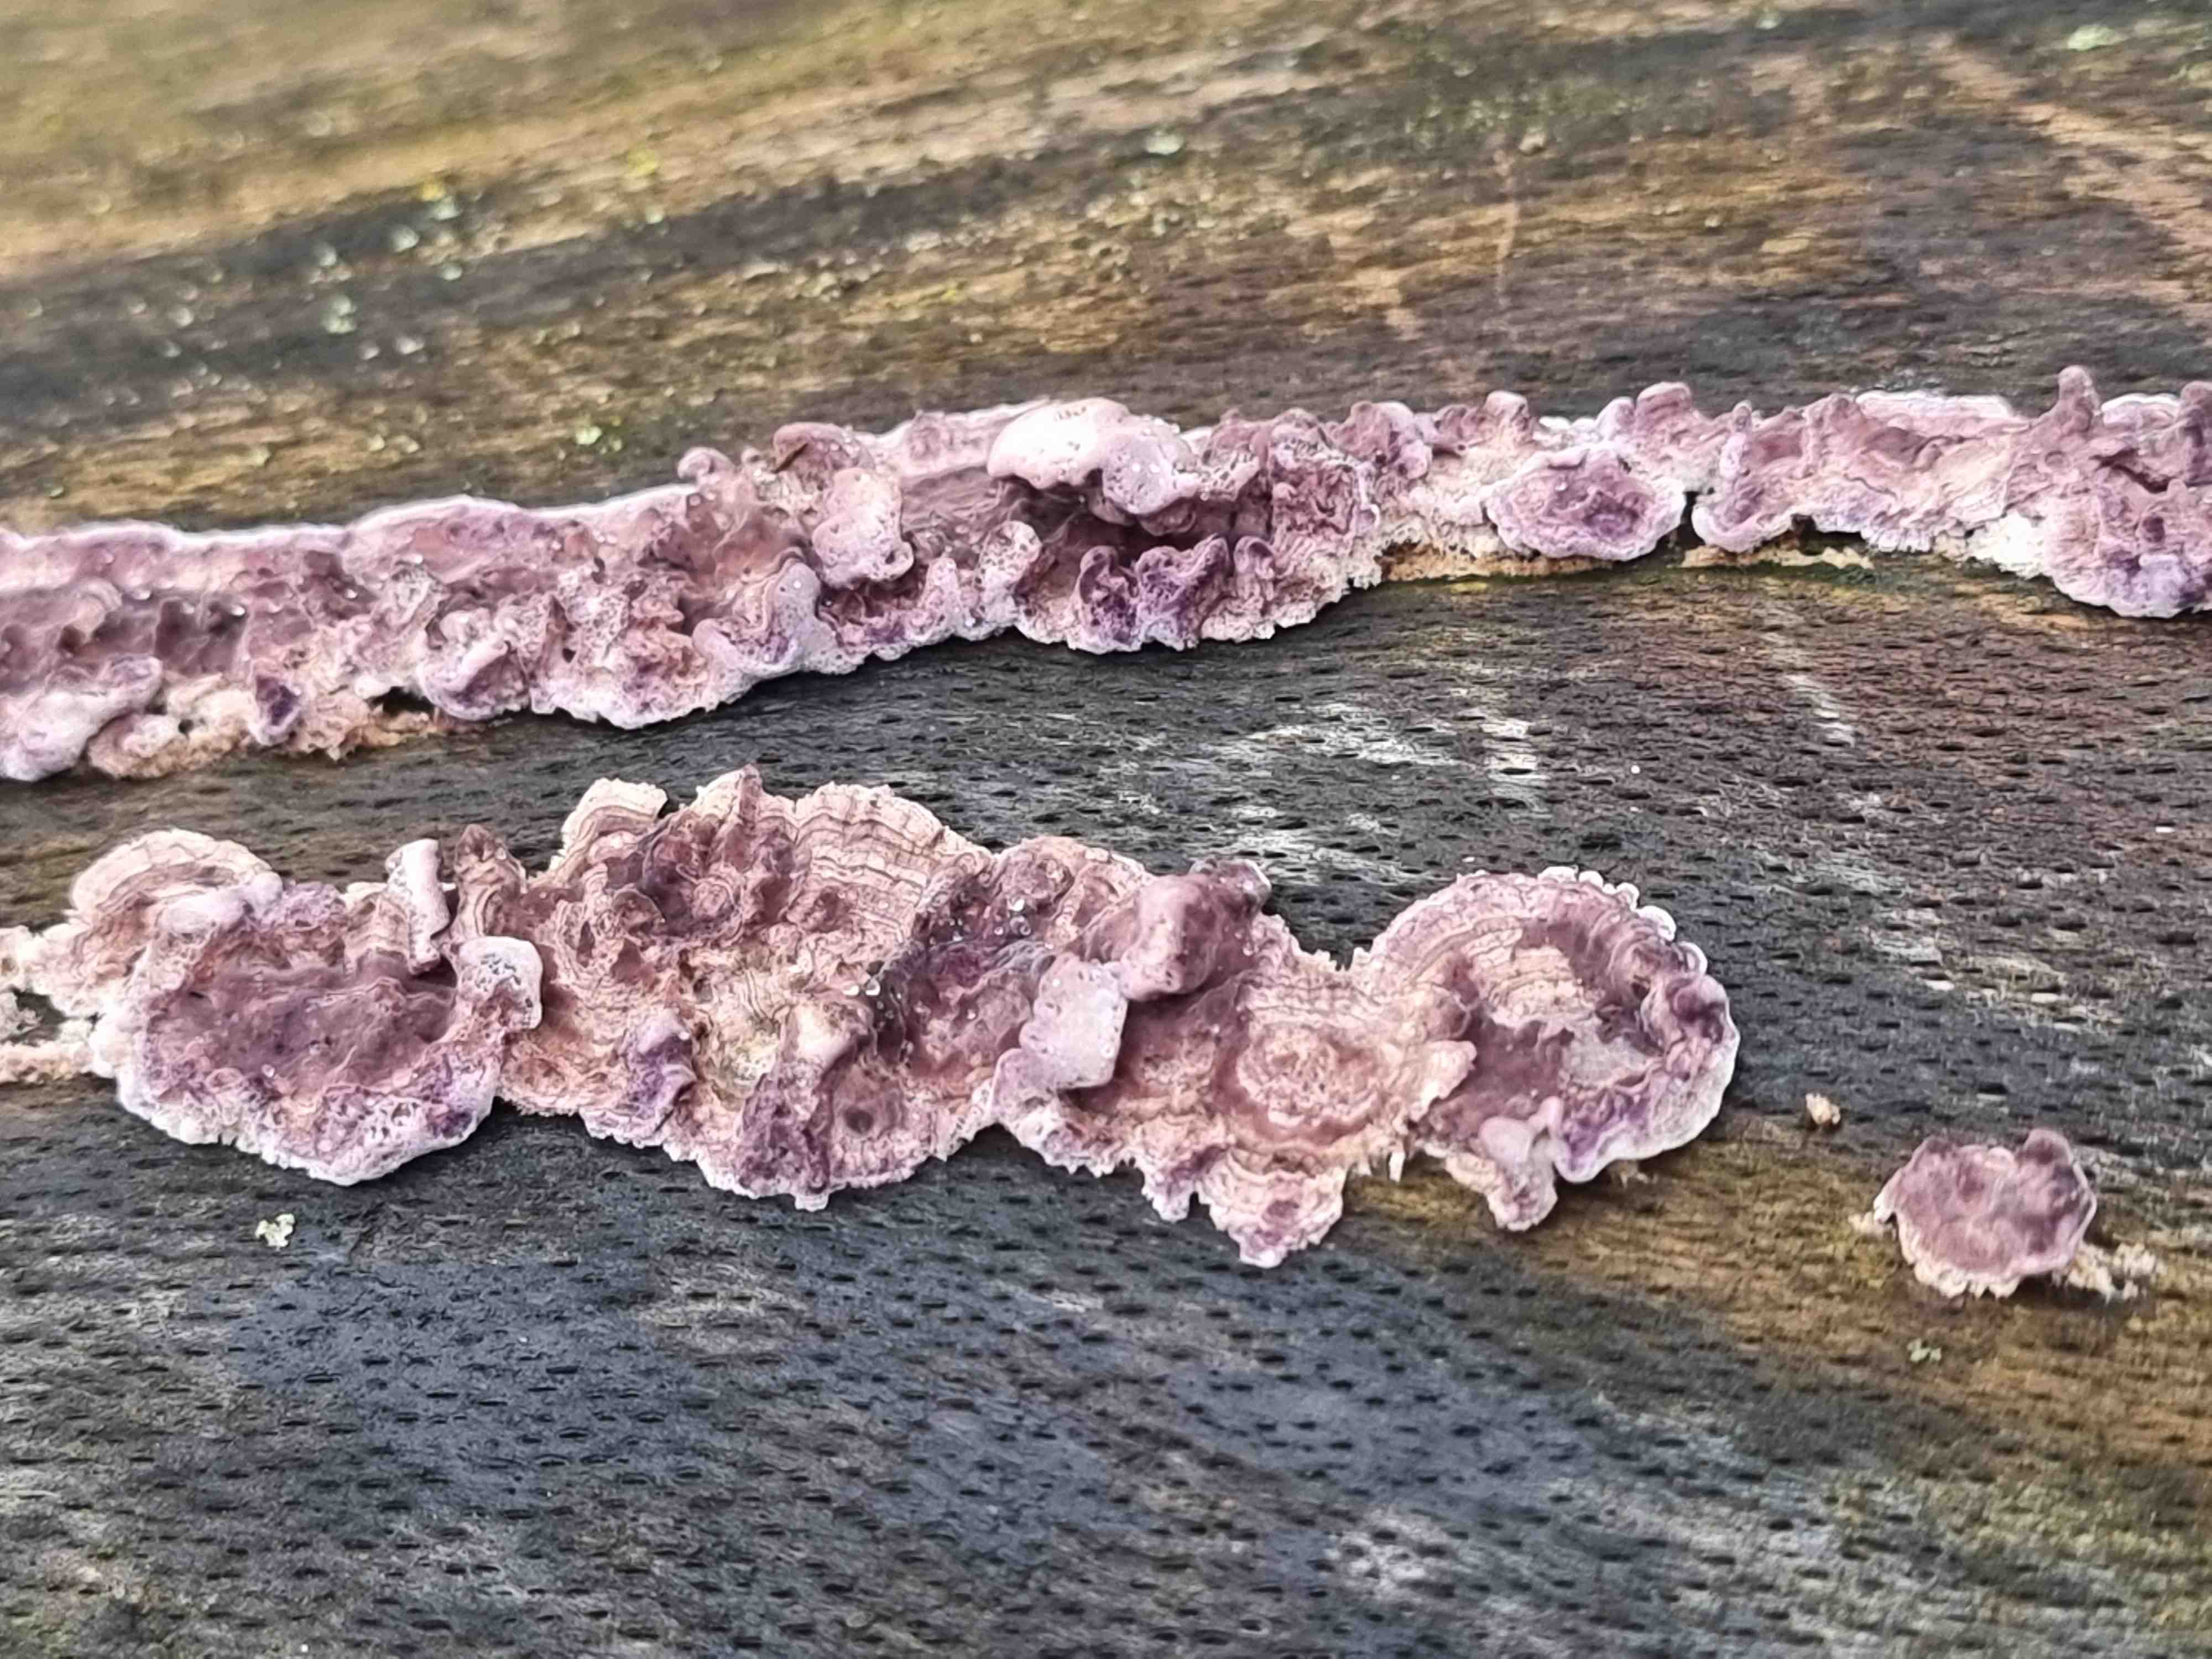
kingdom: Fungi
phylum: Basidiomycota
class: Agaricomycetes
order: Agaricales
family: Cyphellaceae
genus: Chondrostereum
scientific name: Chondrostereum purpureum
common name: purpurlædersvamp
